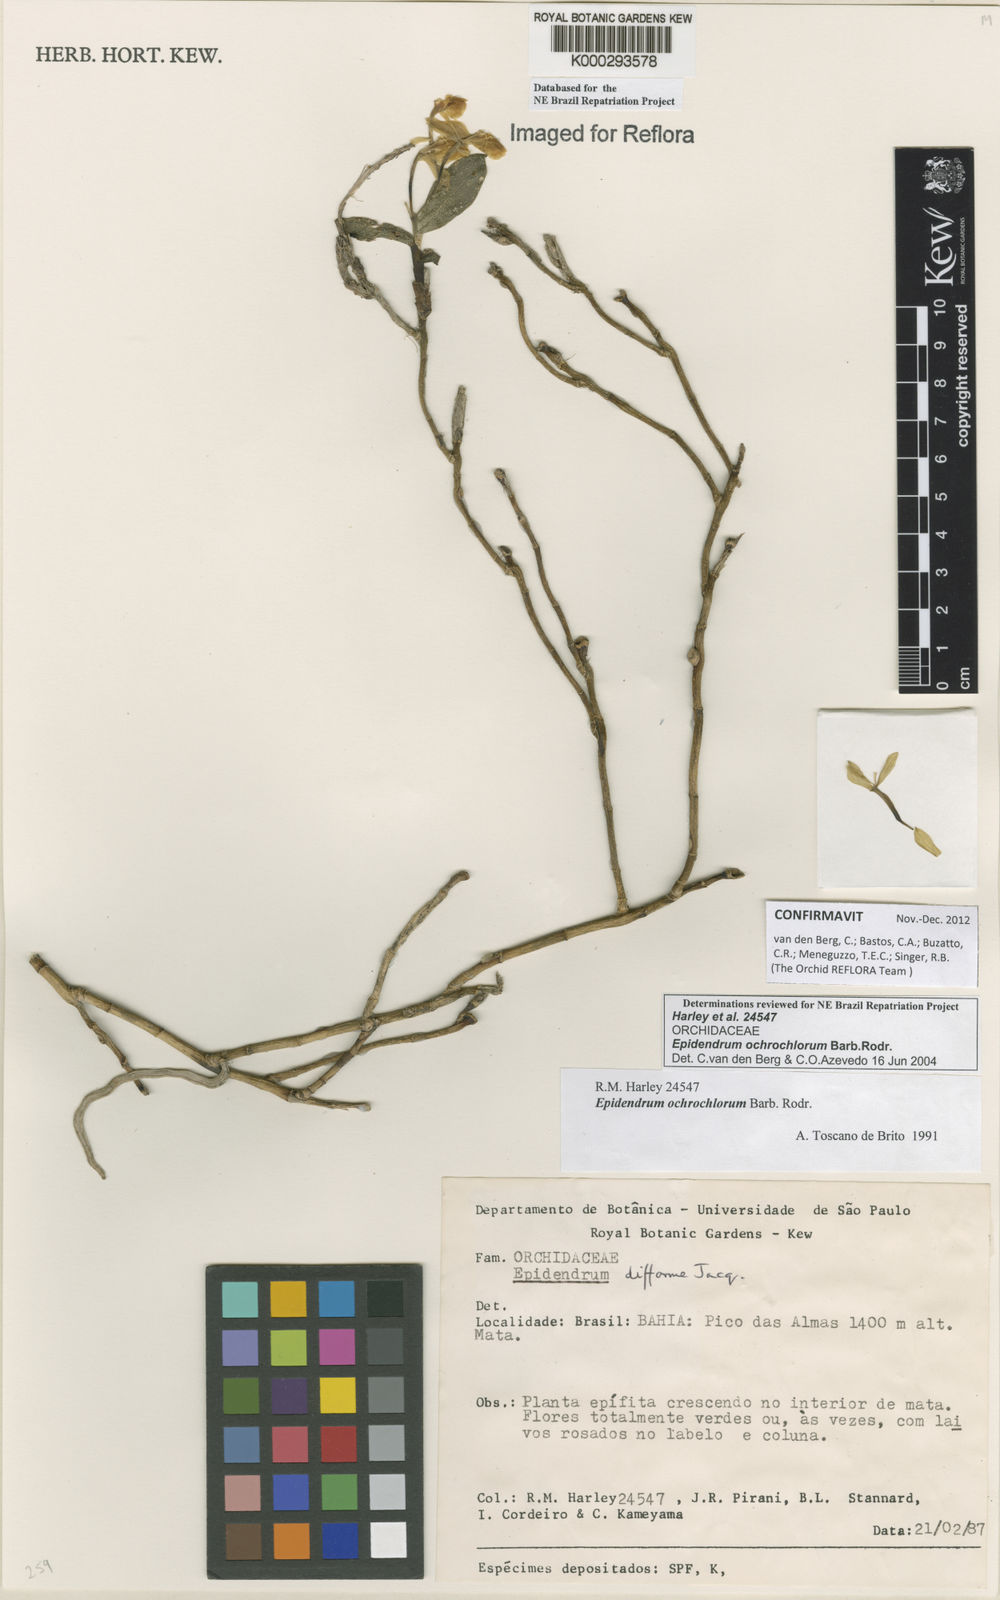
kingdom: Plantae
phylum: Tracheophyta
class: Liliopsida
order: Asparagales
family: Orchidaceae
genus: Epidendrum
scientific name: Epidendrum proligerum
